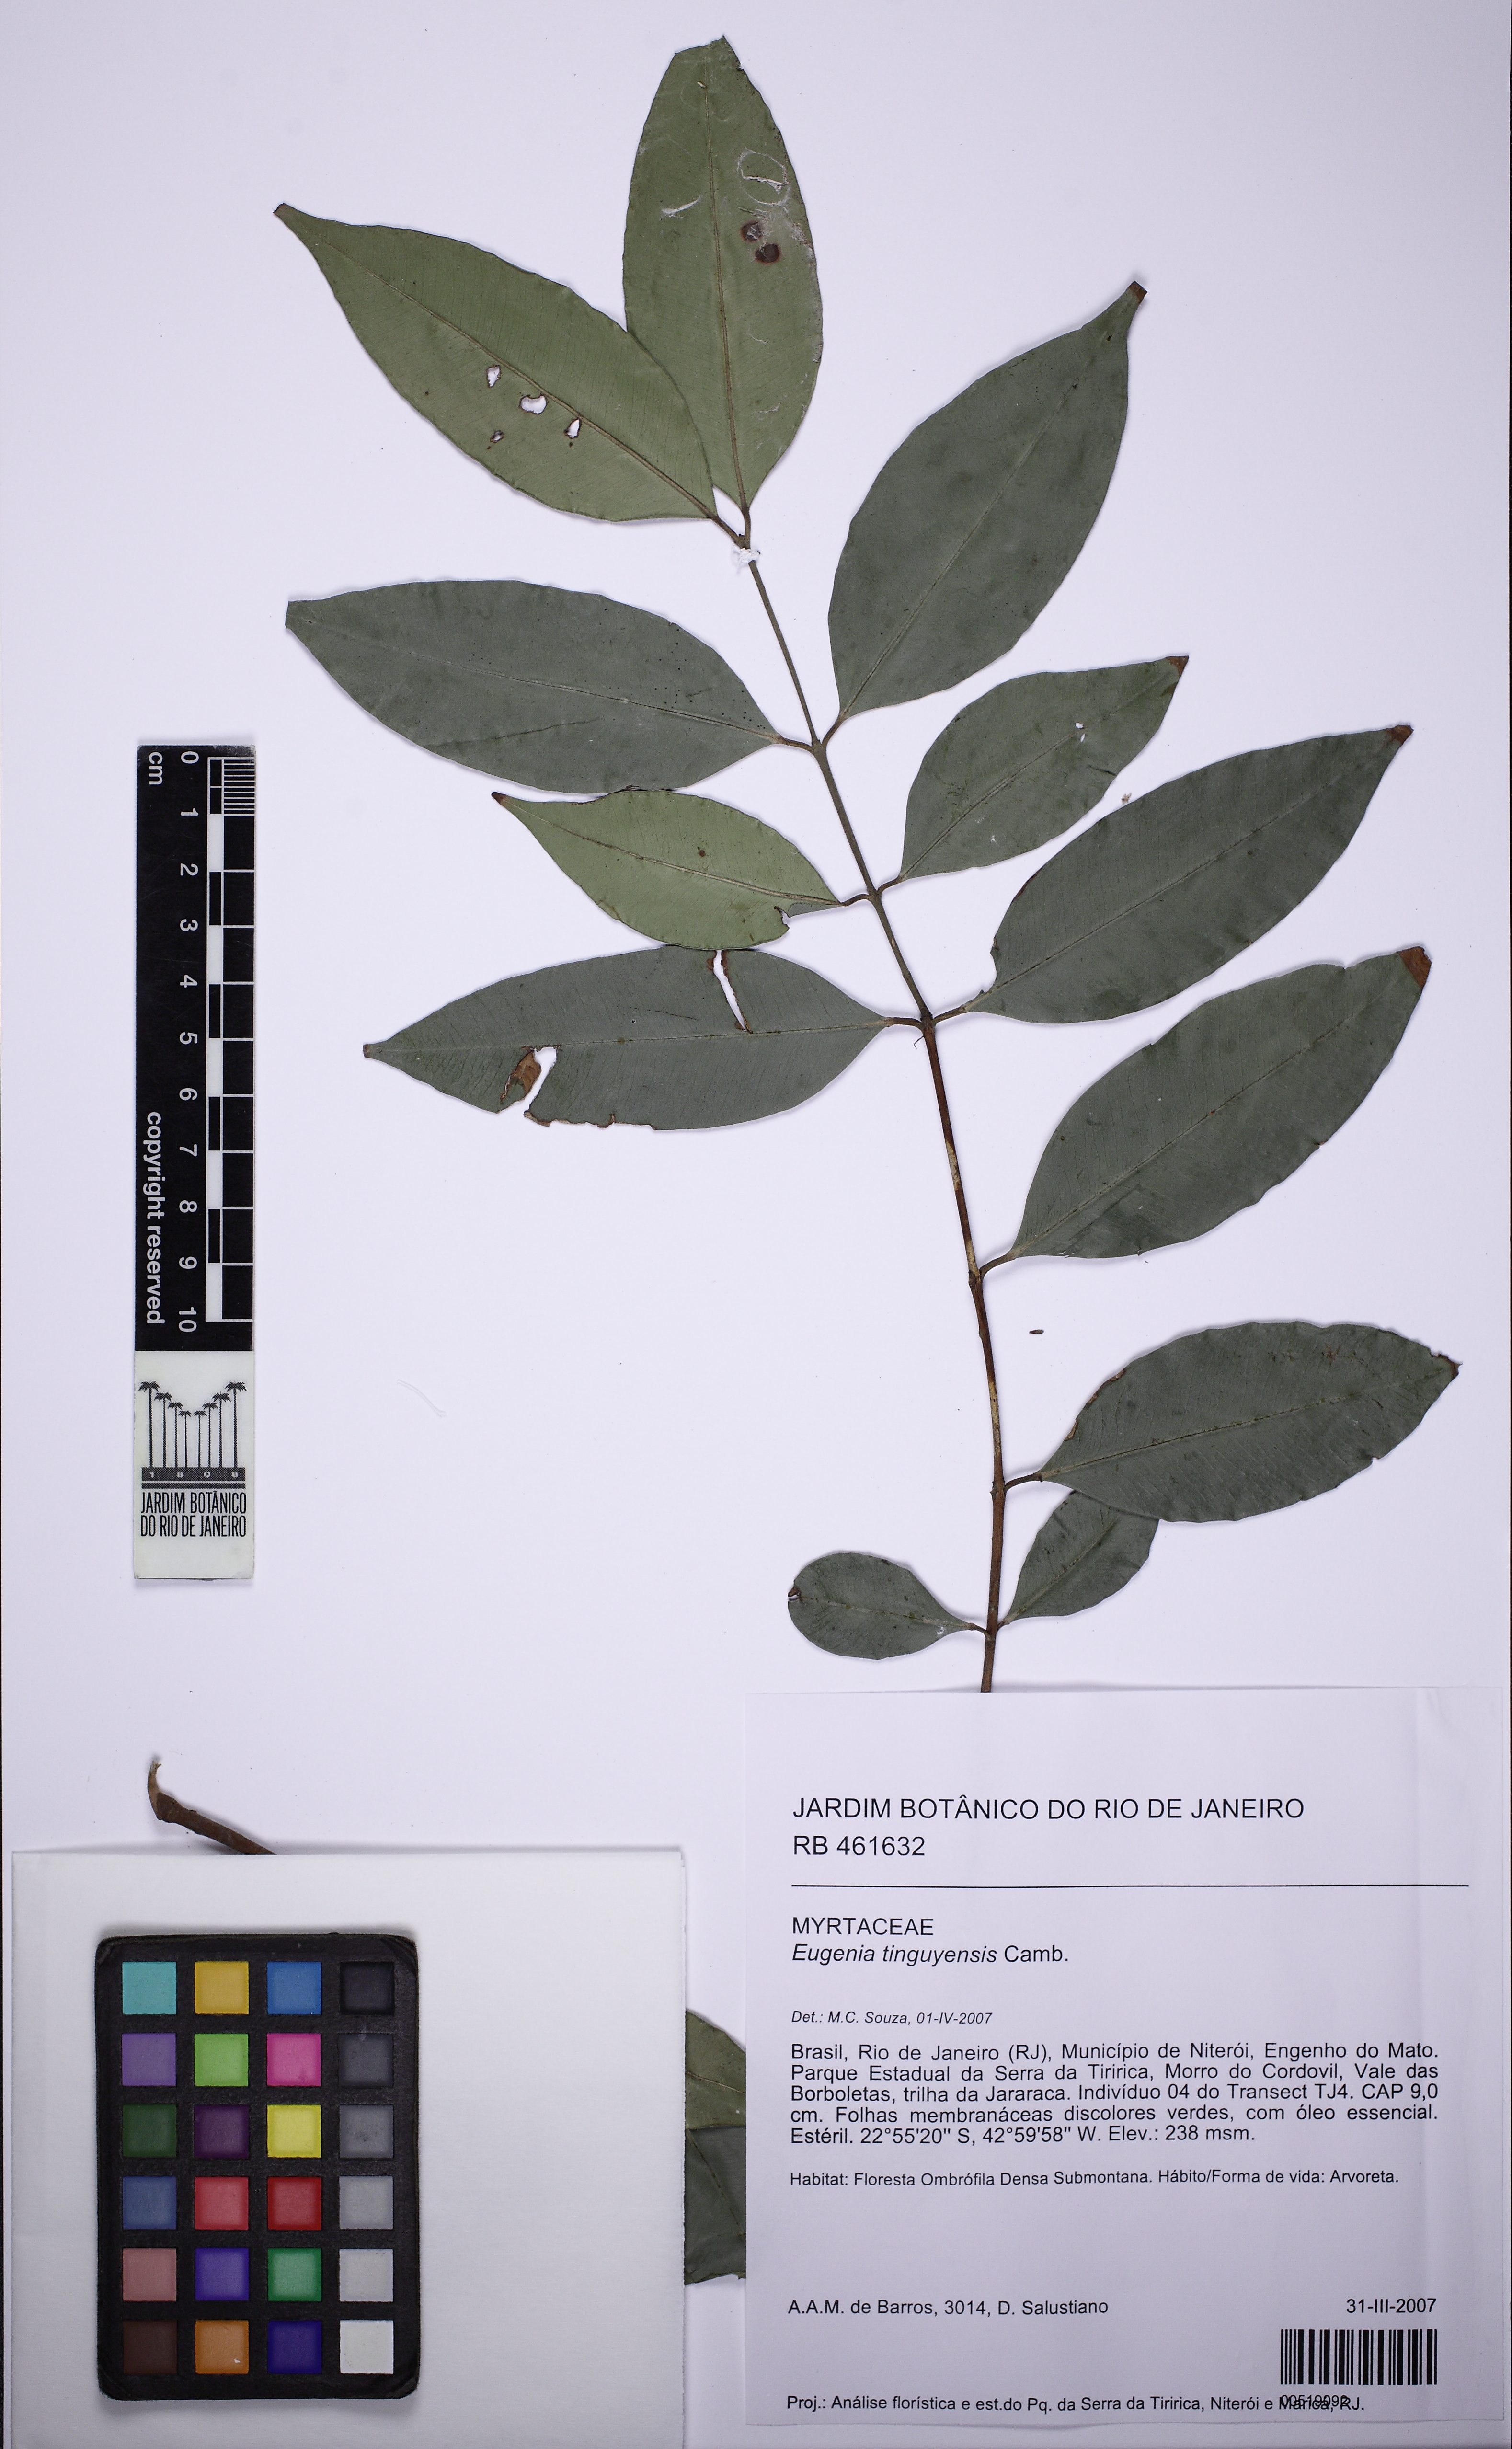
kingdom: Plantae
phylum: Tracheophyta
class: Magnoliopsida
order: Myrtales
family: Myrtaceae
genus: Eugenia
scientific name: Eugenia pisiformis
